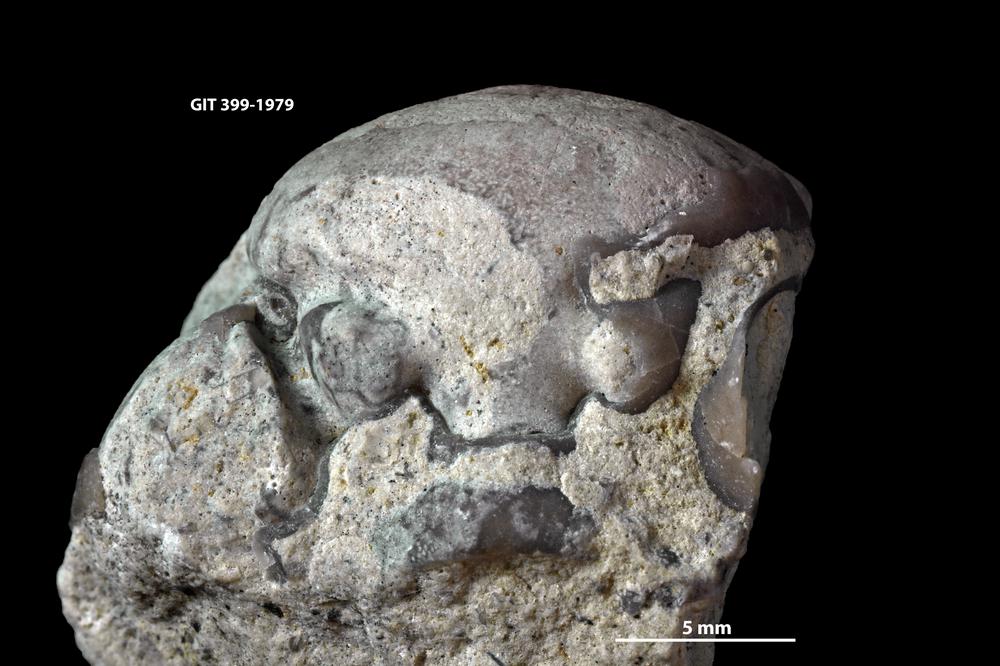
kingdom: Animalia
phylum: Arthropoda
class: Trilobita
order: Phacopida
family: Pterygometopidae
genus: Oculichasmops
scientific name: Oculichasmops
